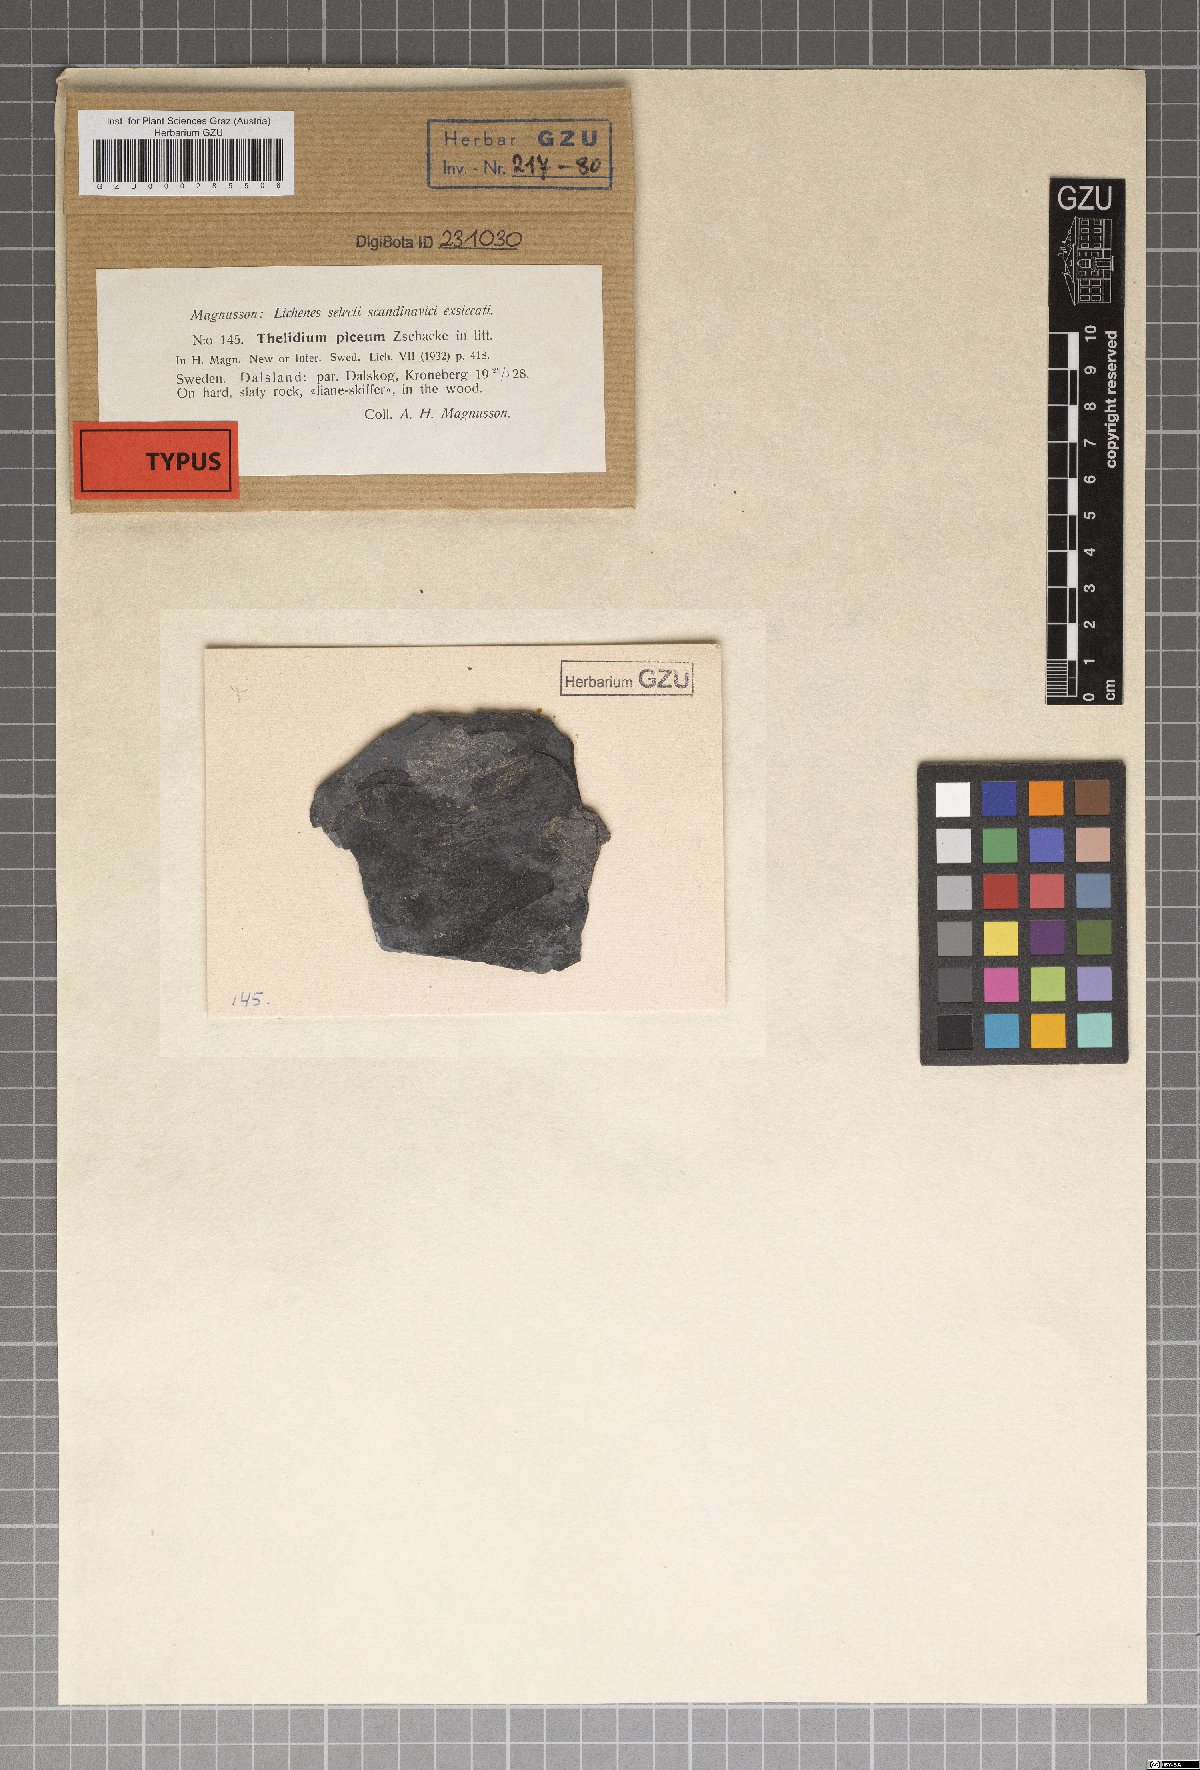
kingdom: Fungi
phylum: Ascomycota
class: Eurotiomycetes
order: Verrucariales
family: Verrucariaceae
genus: Thelidium
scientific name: Thelidium piceum
